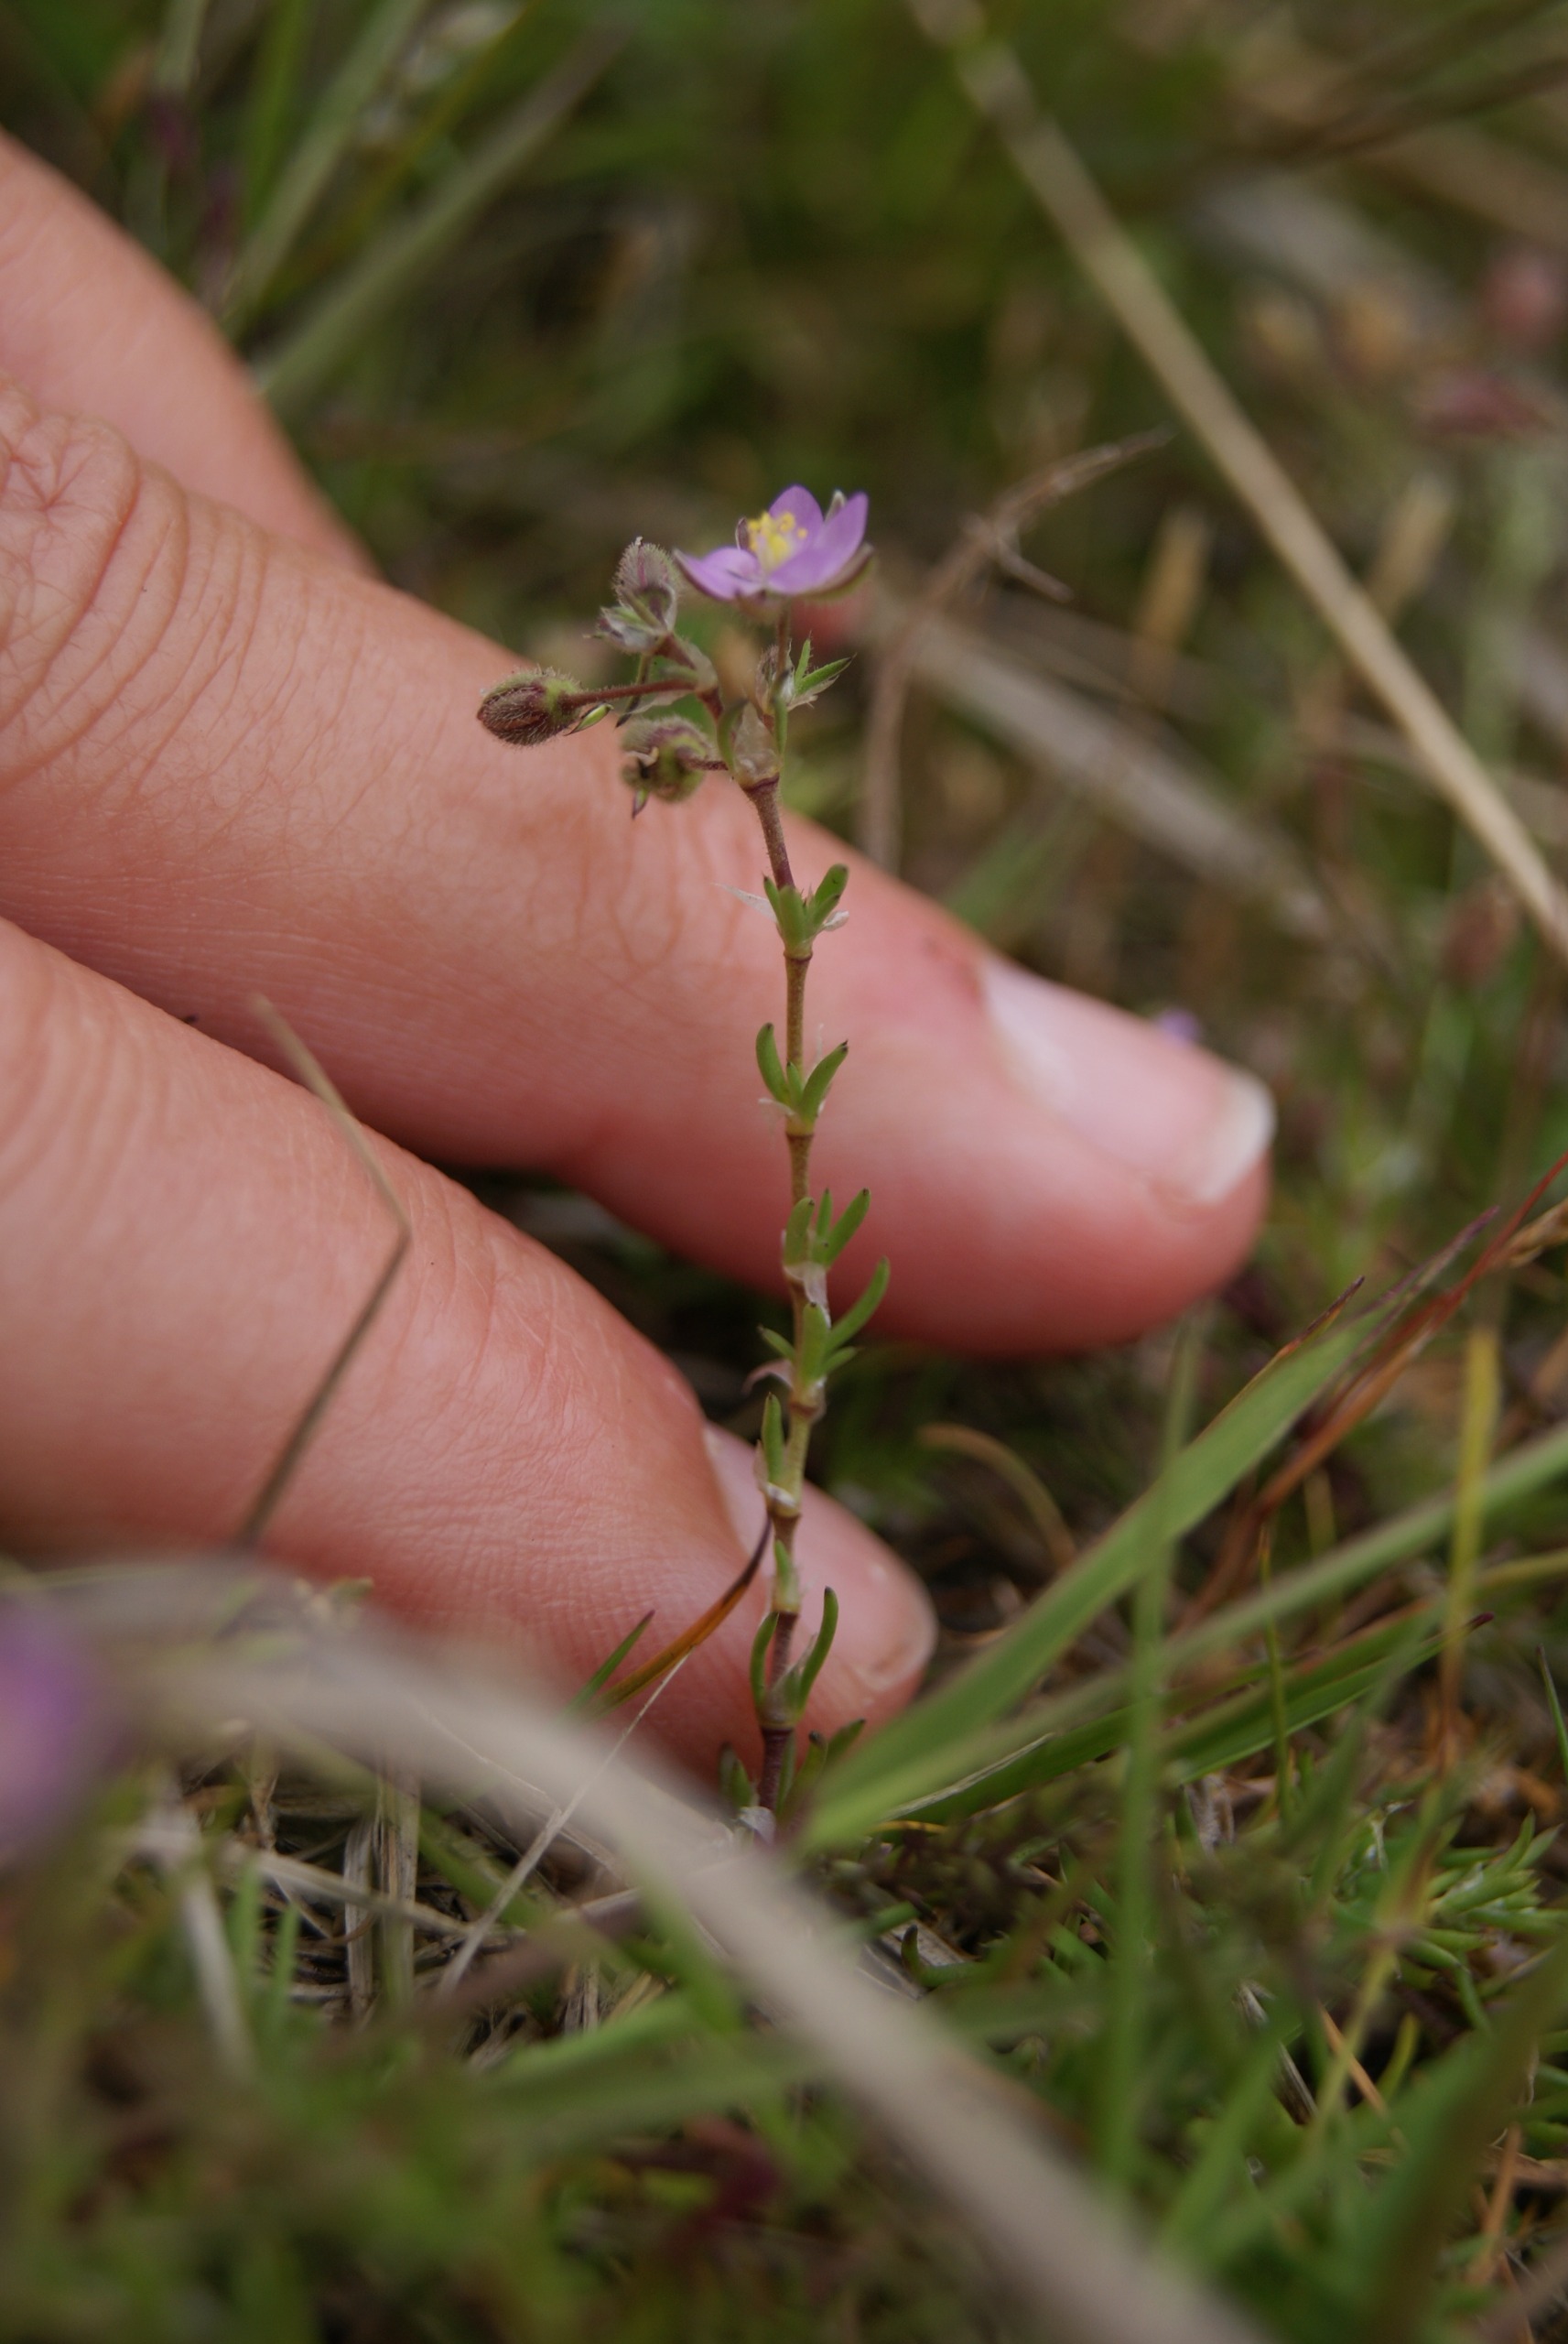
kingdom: Plantae
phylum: Tracheophyta
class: Magnoliopsida
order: Caryophyllales
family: Caryophyllaceae
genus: Spergularia
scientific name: Spergularia rubra
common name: Mark-hindeknæ
